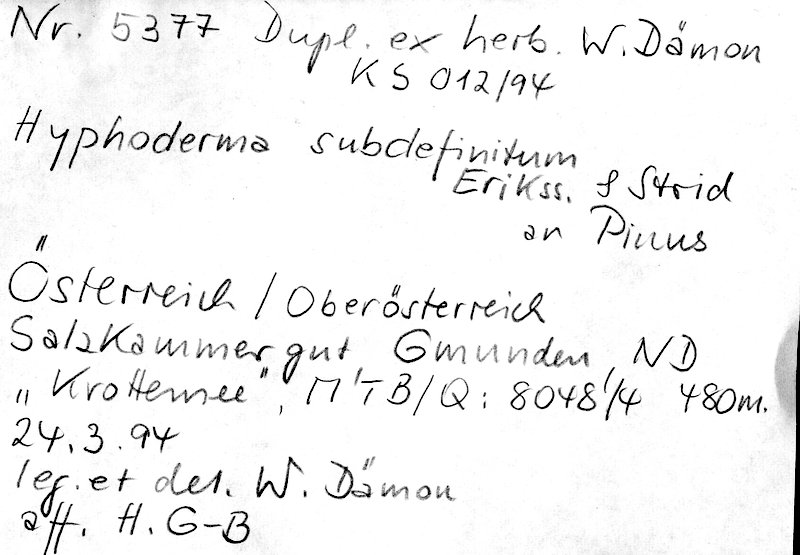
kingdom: Fungi
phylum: Basidiomycota
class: Agaricomycetes
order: Polyporales
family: Hyphodermataceae
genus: Hyphoderma
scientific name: Hyphoderma occidentale
